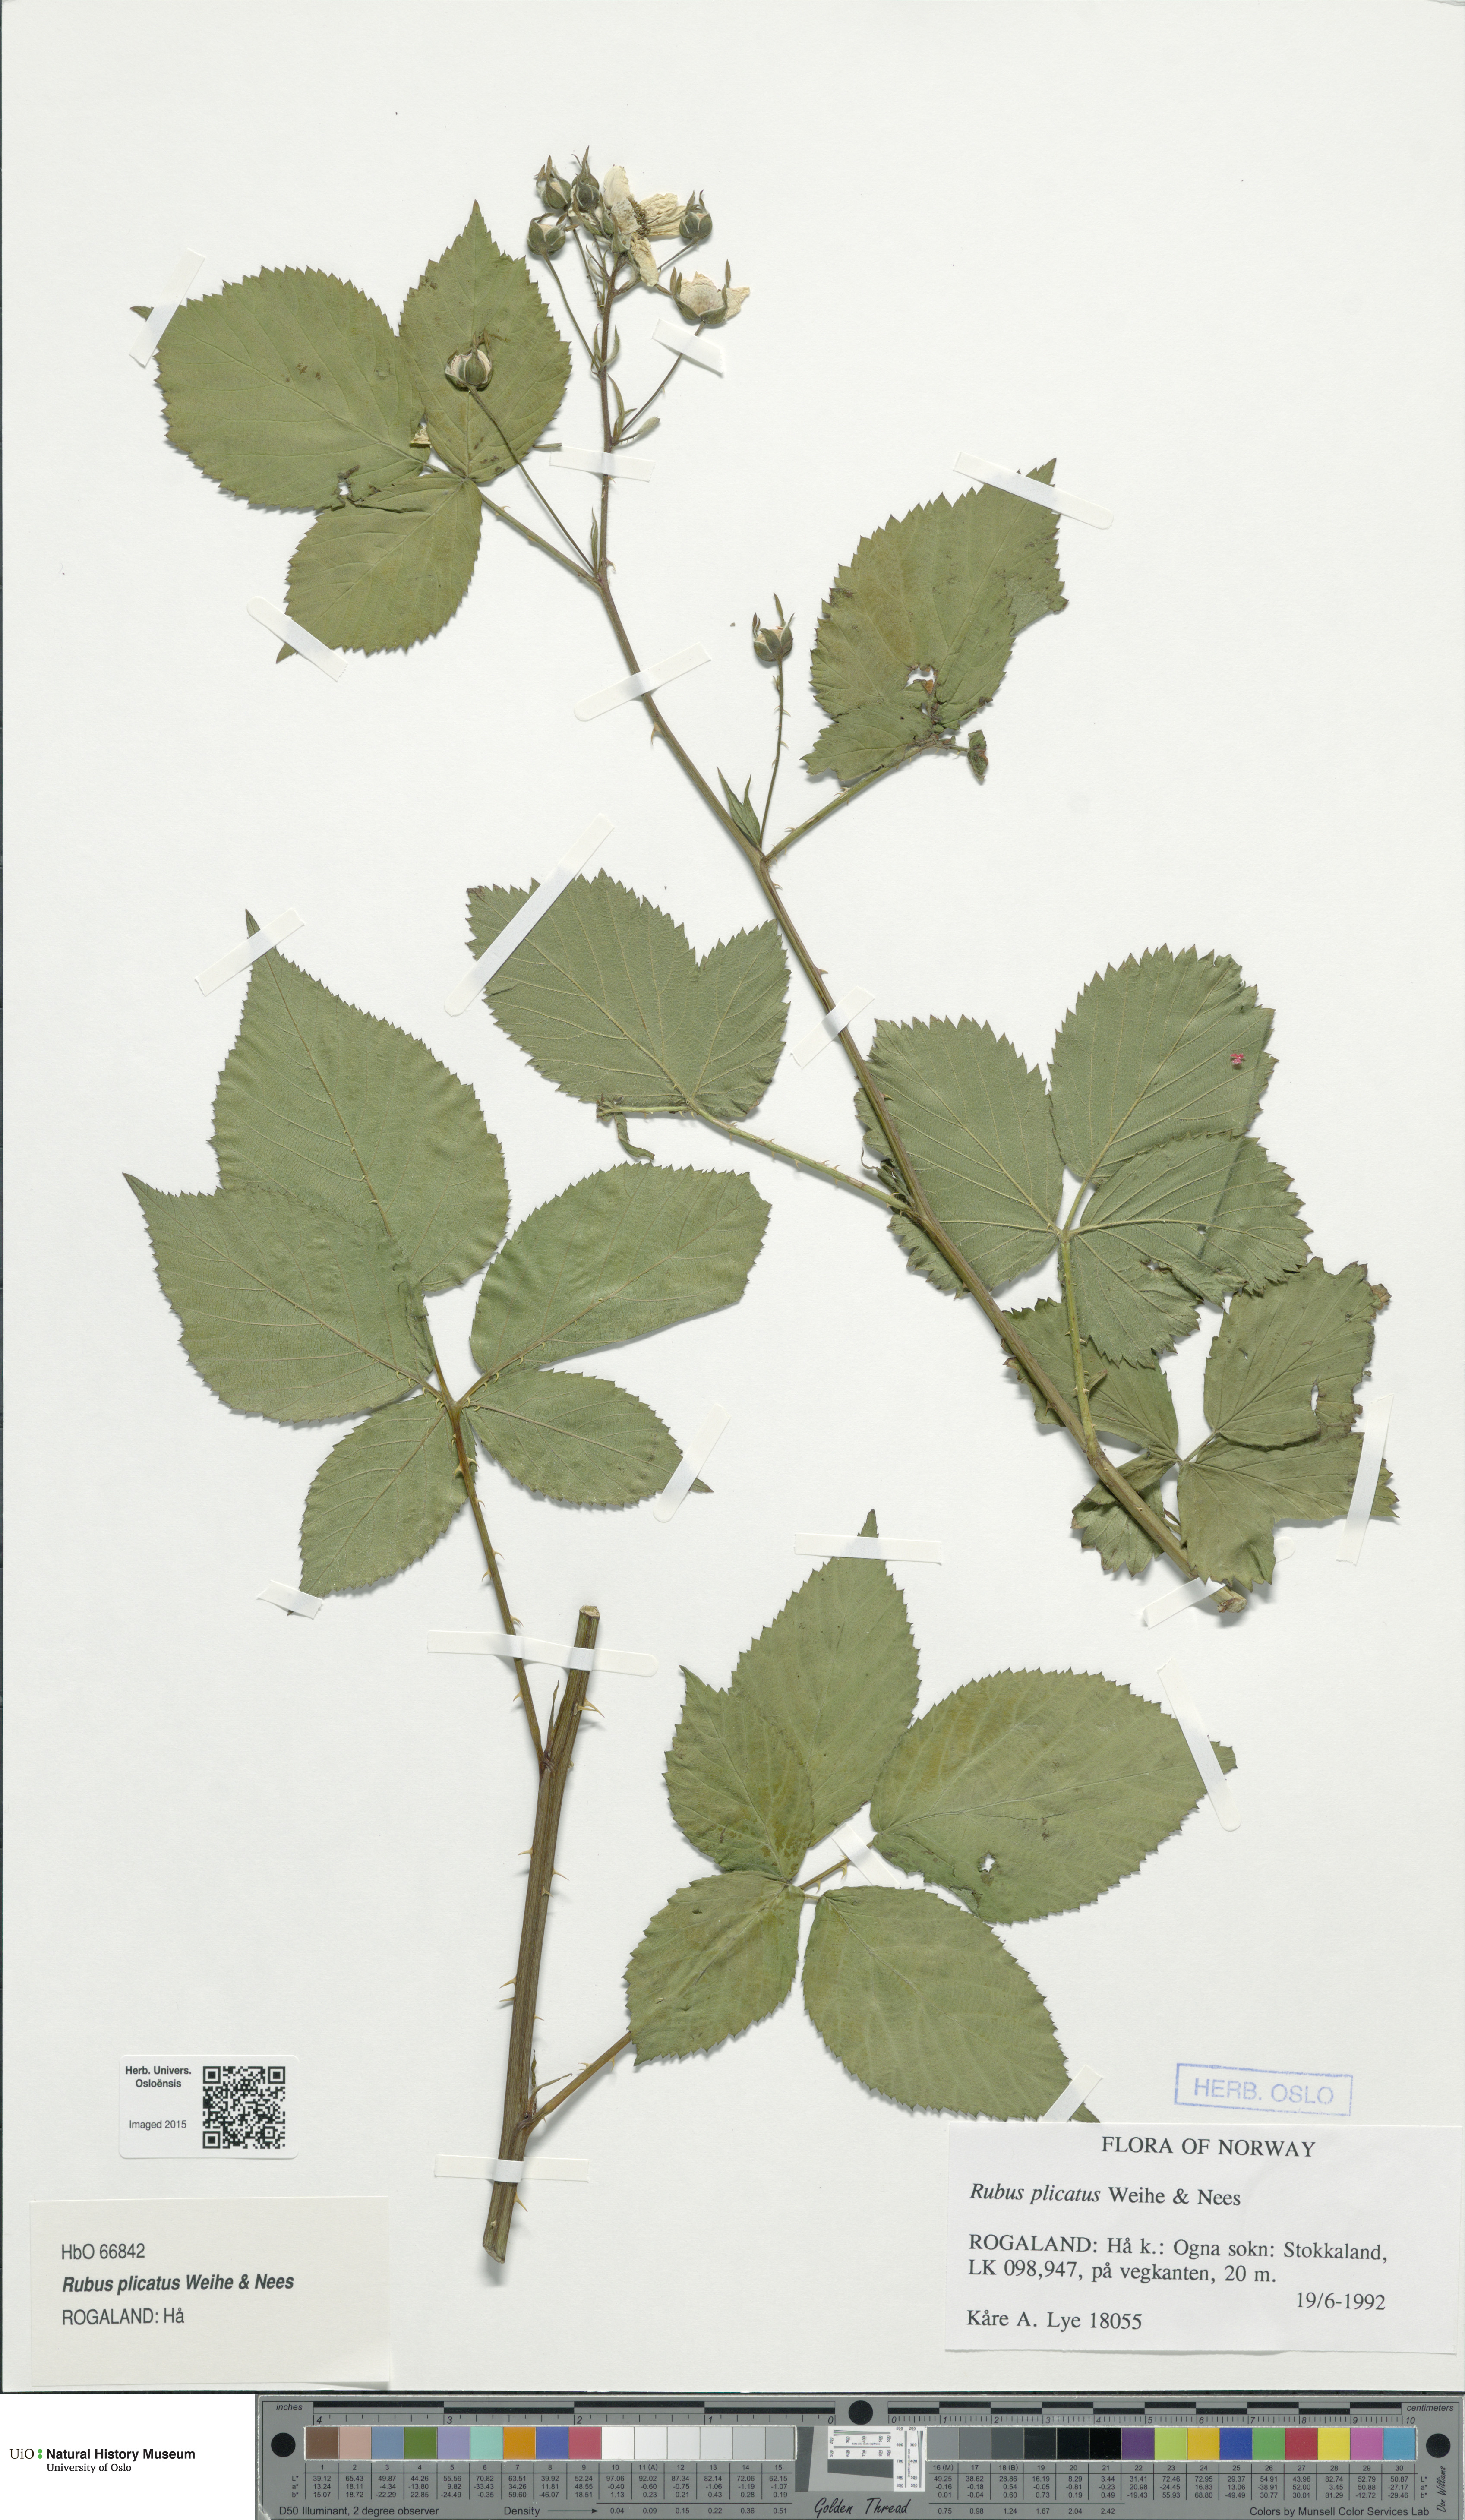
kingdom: Plantae
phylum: Tracheophyta
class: Magnoliopsida
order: Rosales
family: Rosaceae
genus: Rubus
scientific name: Rubus fruticosus
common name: Blackberry, bramble
